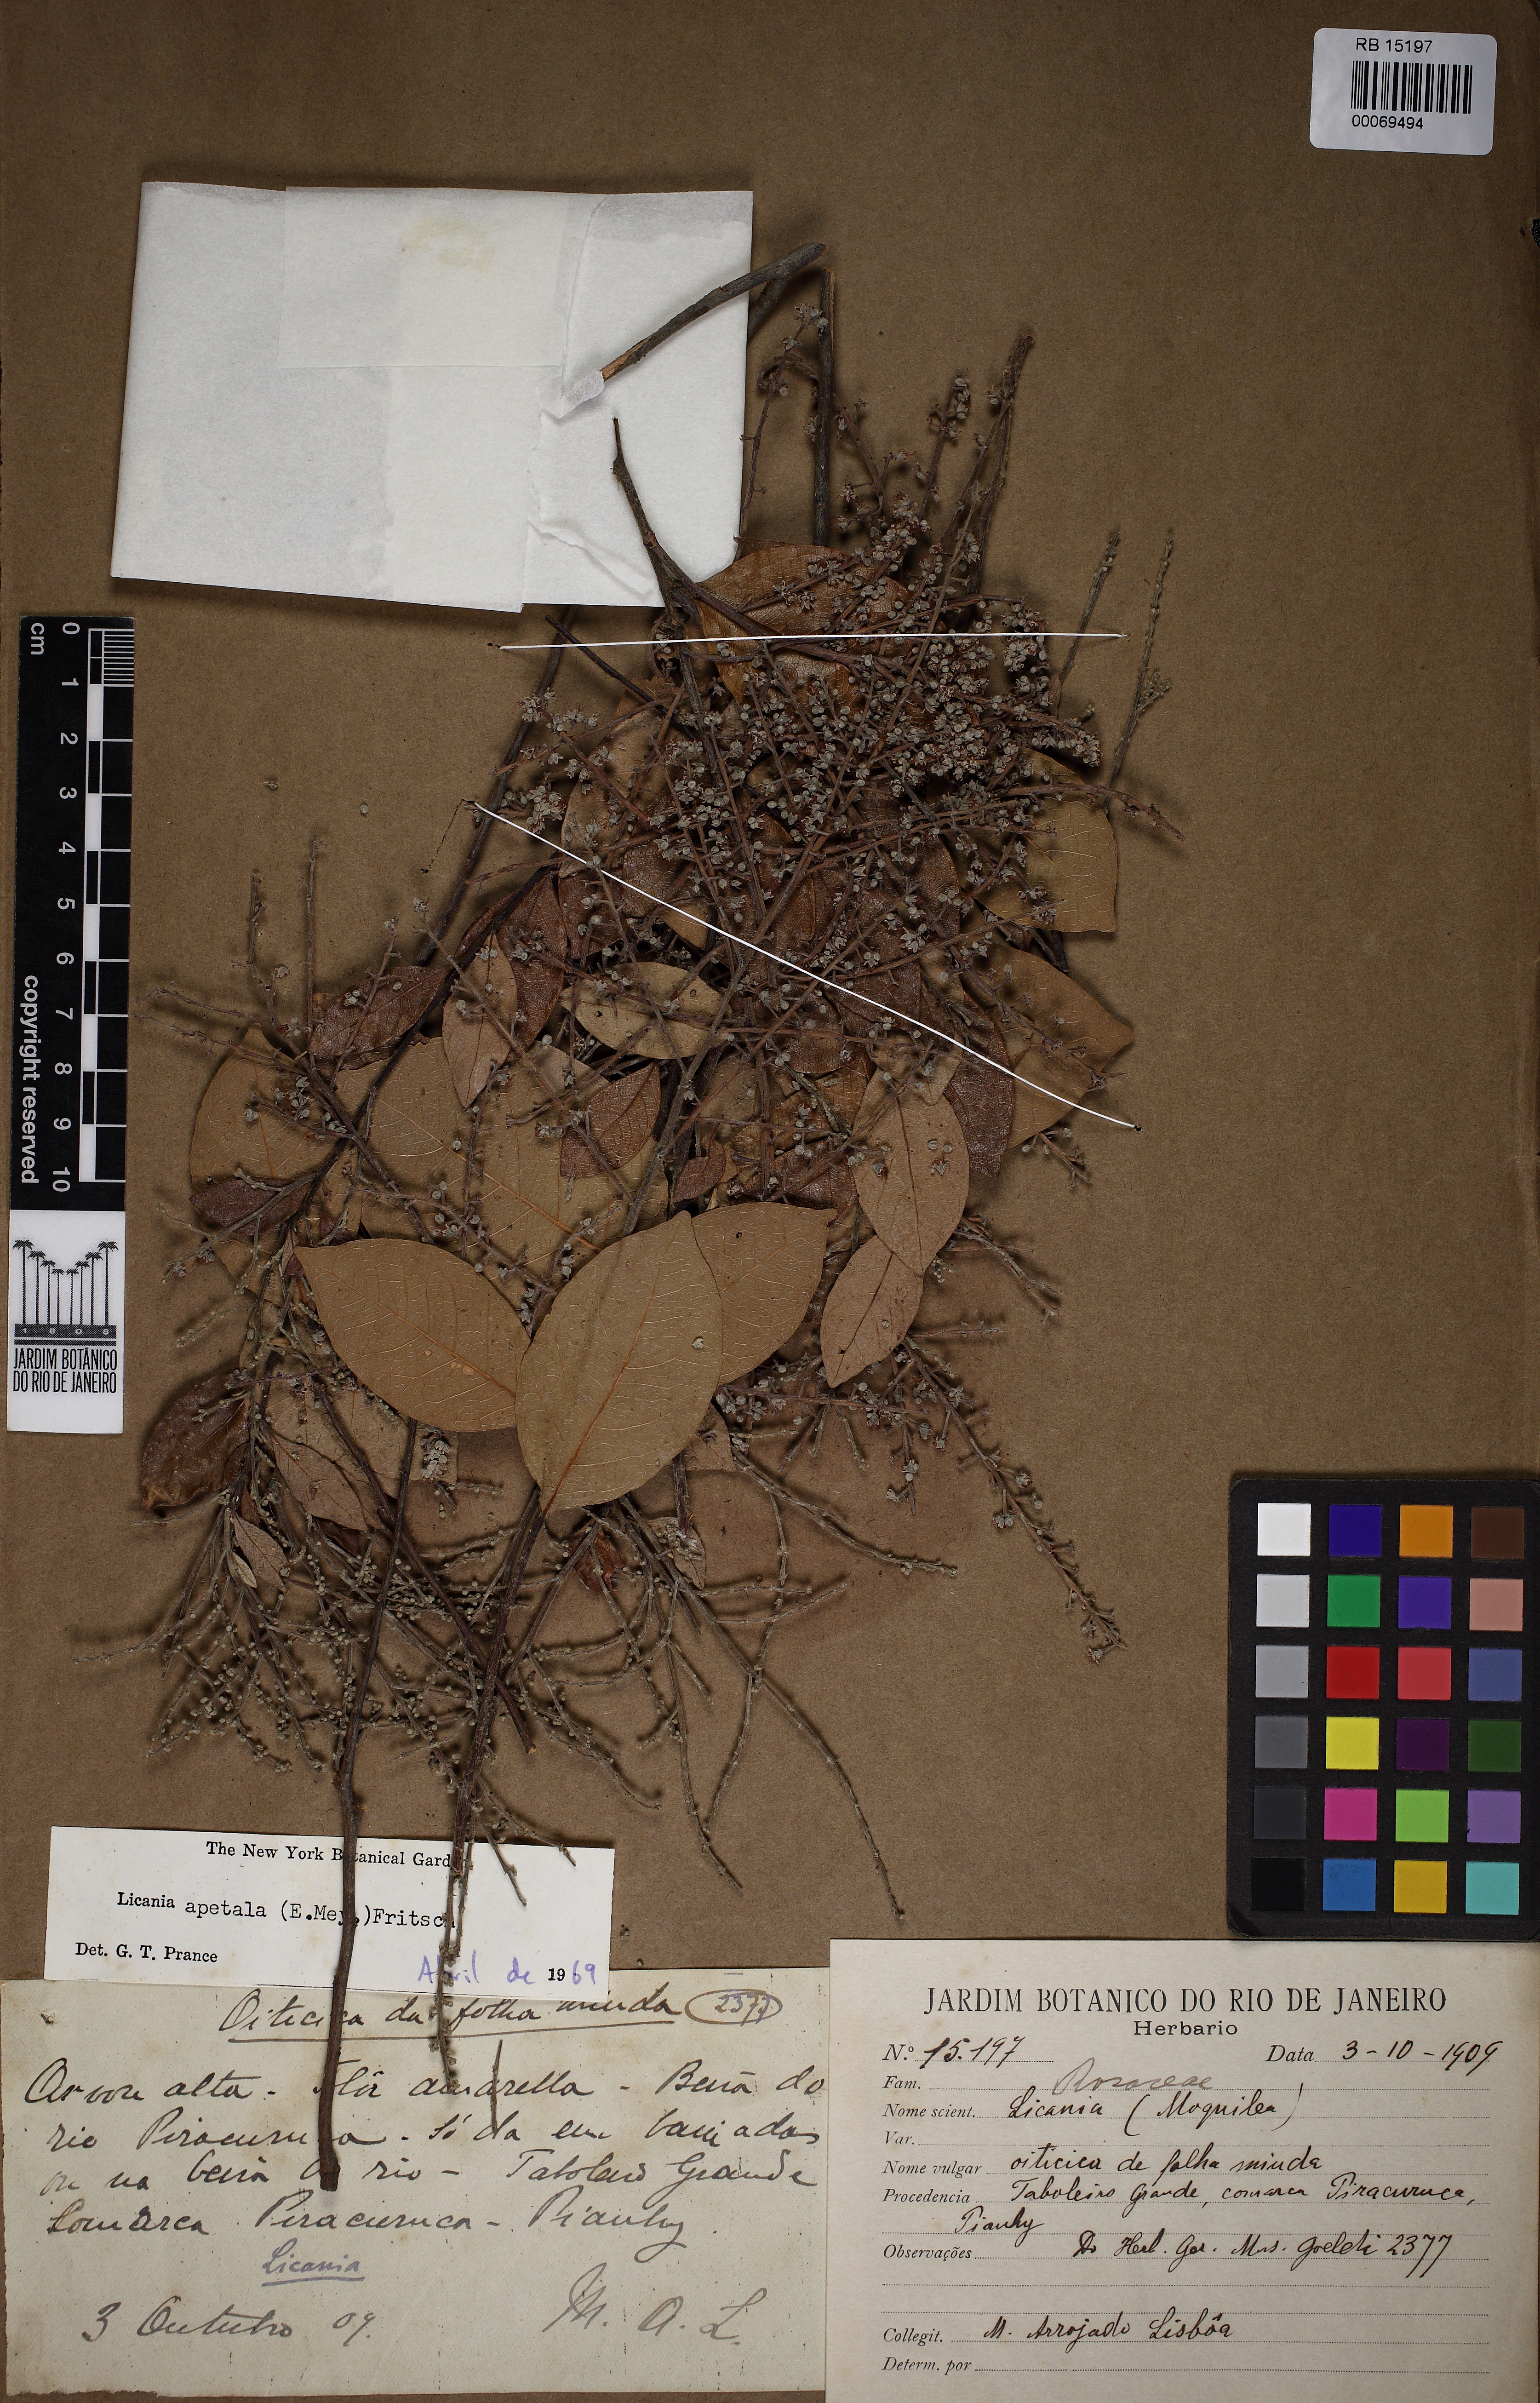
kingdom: Plantae
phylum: Tracheophyta
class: Magnoliopsida
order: Malpighiales
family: Chrysobalanaceae
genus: Leptobalanus
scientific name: Leptobalanus apetalus
